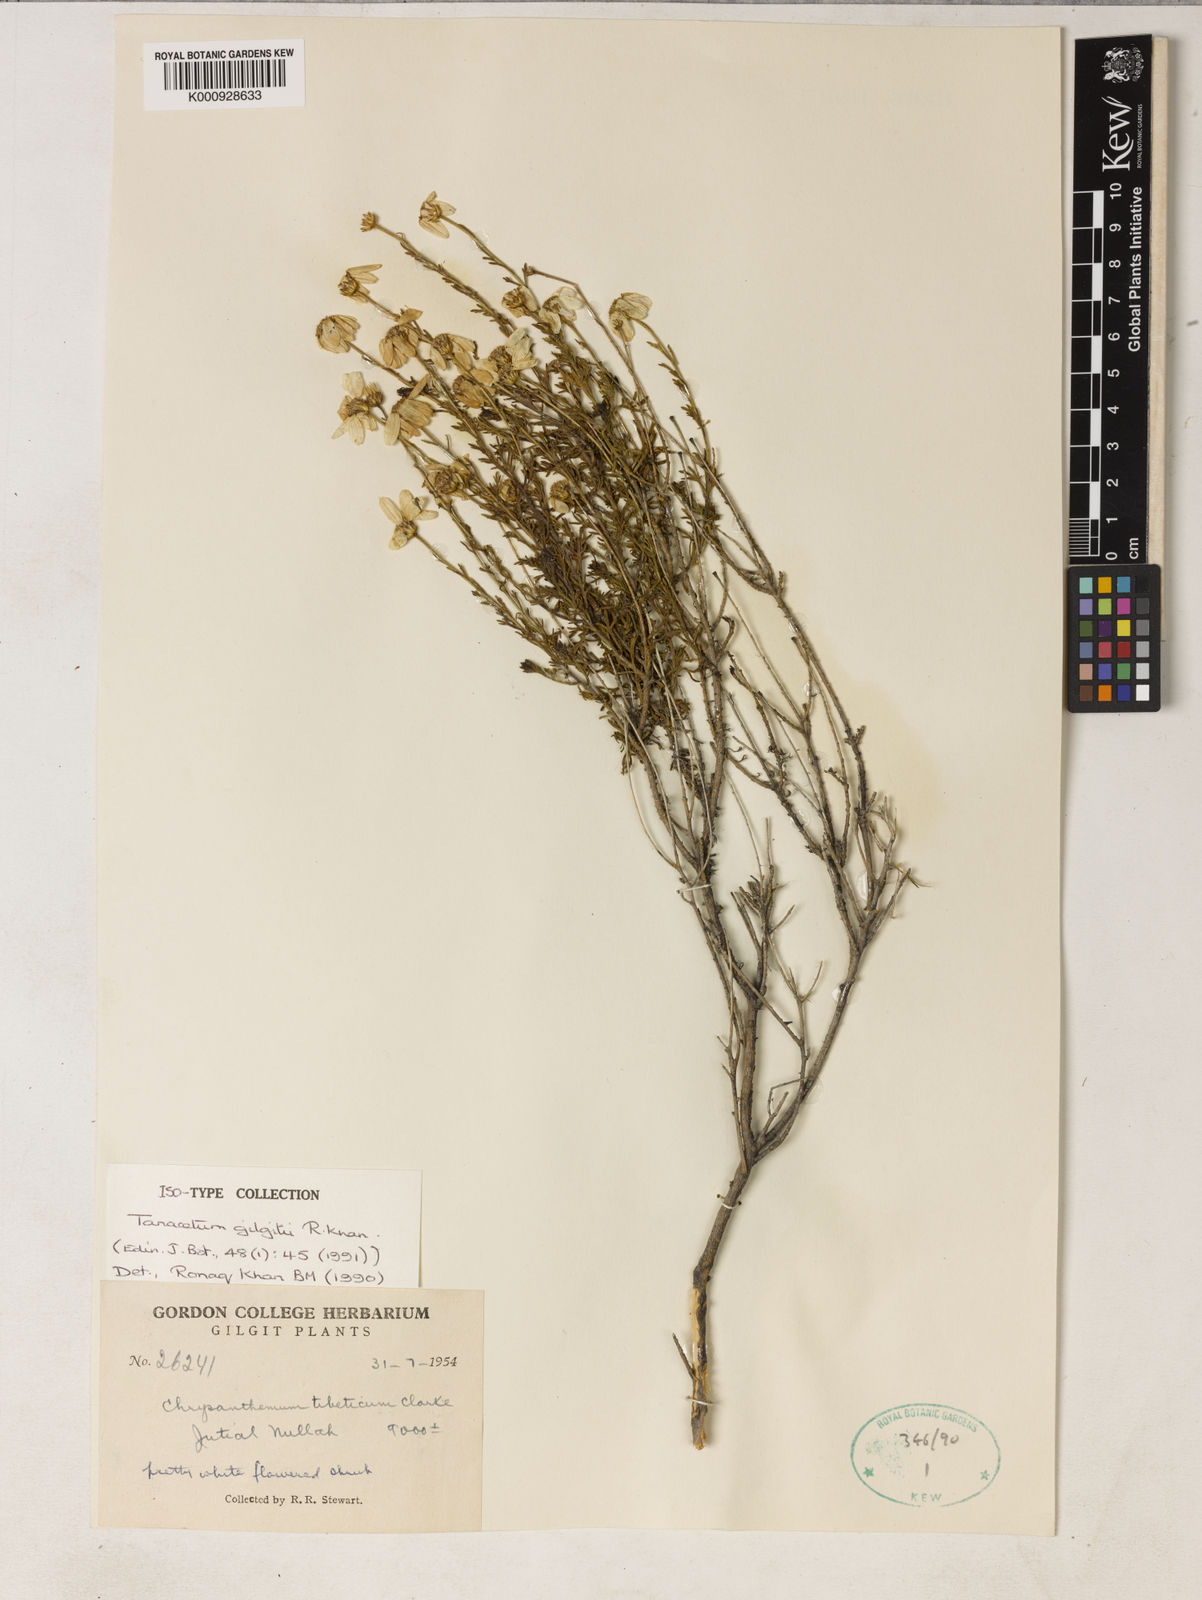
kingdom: Plantae
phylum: Tracheophyta
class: Magnoliopsida
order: Asterales
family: Asteraceae
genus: Tanacetum
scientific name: Tanacetum baltistanicum
